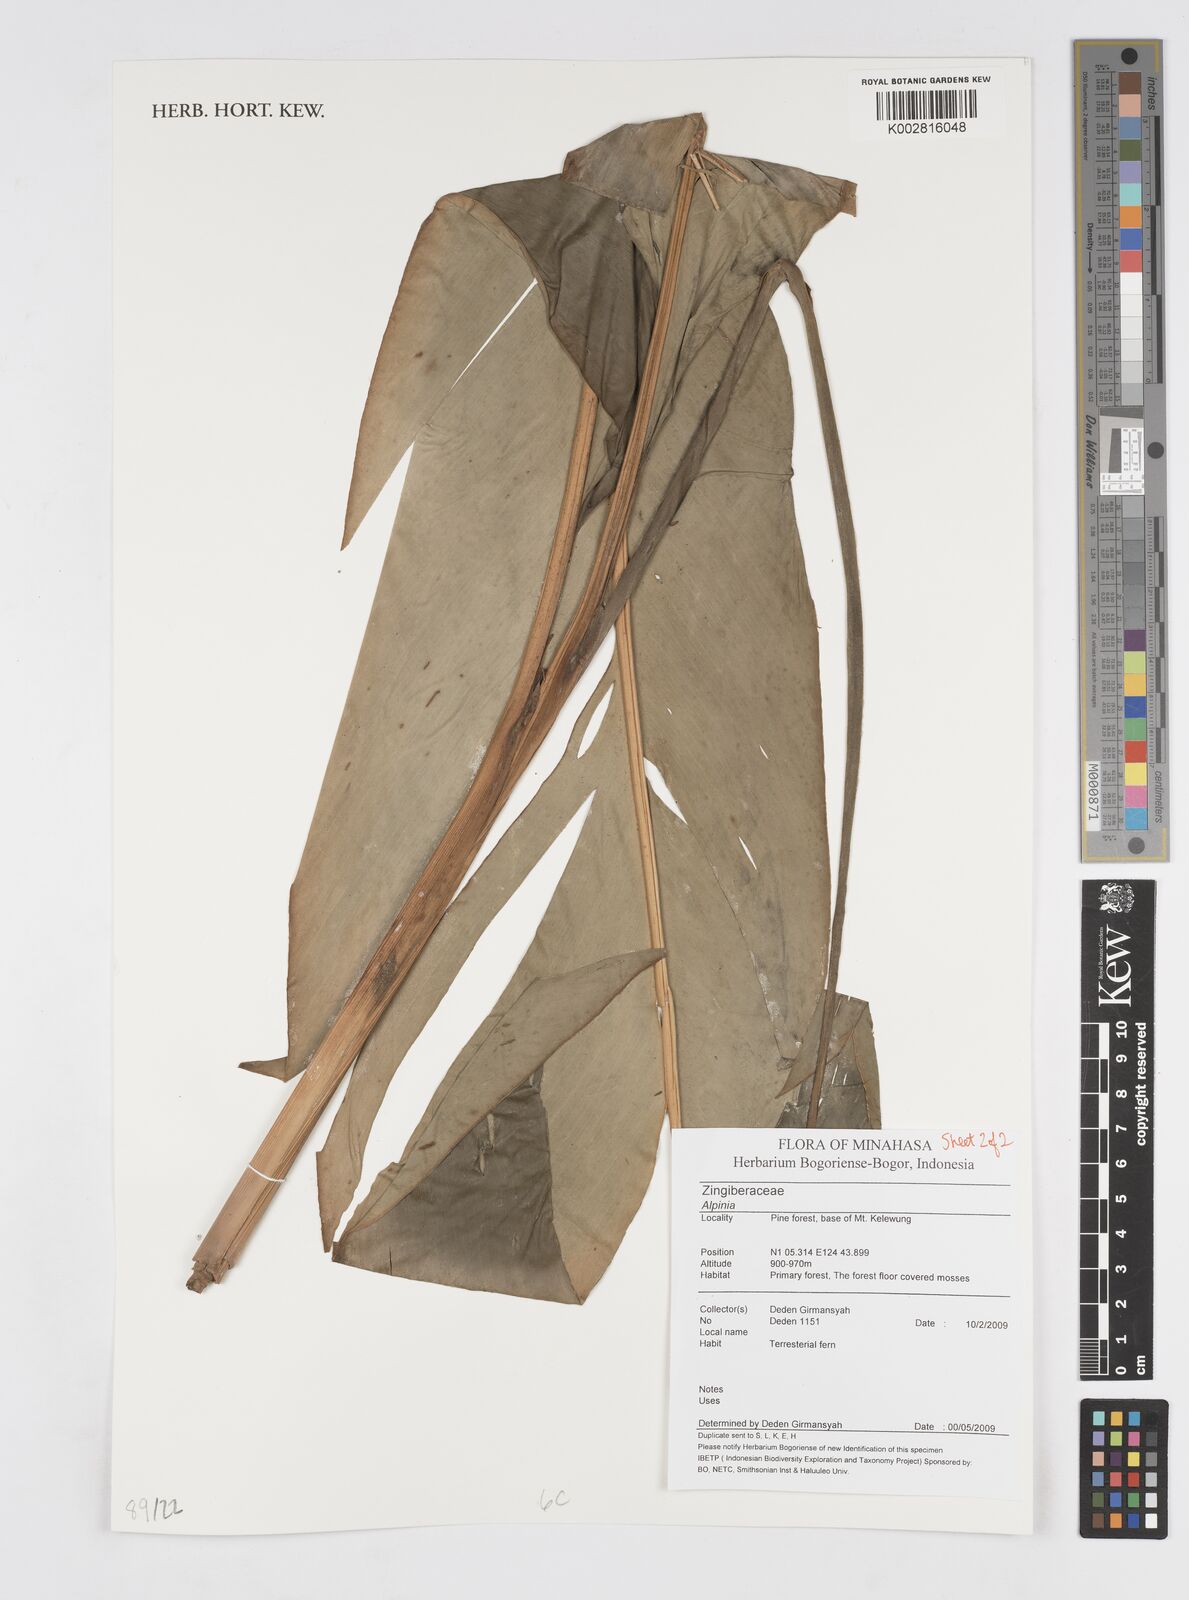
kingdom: Plantae
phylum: Tracheophyta
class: Liliopsida
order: Zingiberales
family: Zingiberaceae
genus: Alpinia
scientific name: Alpinia
